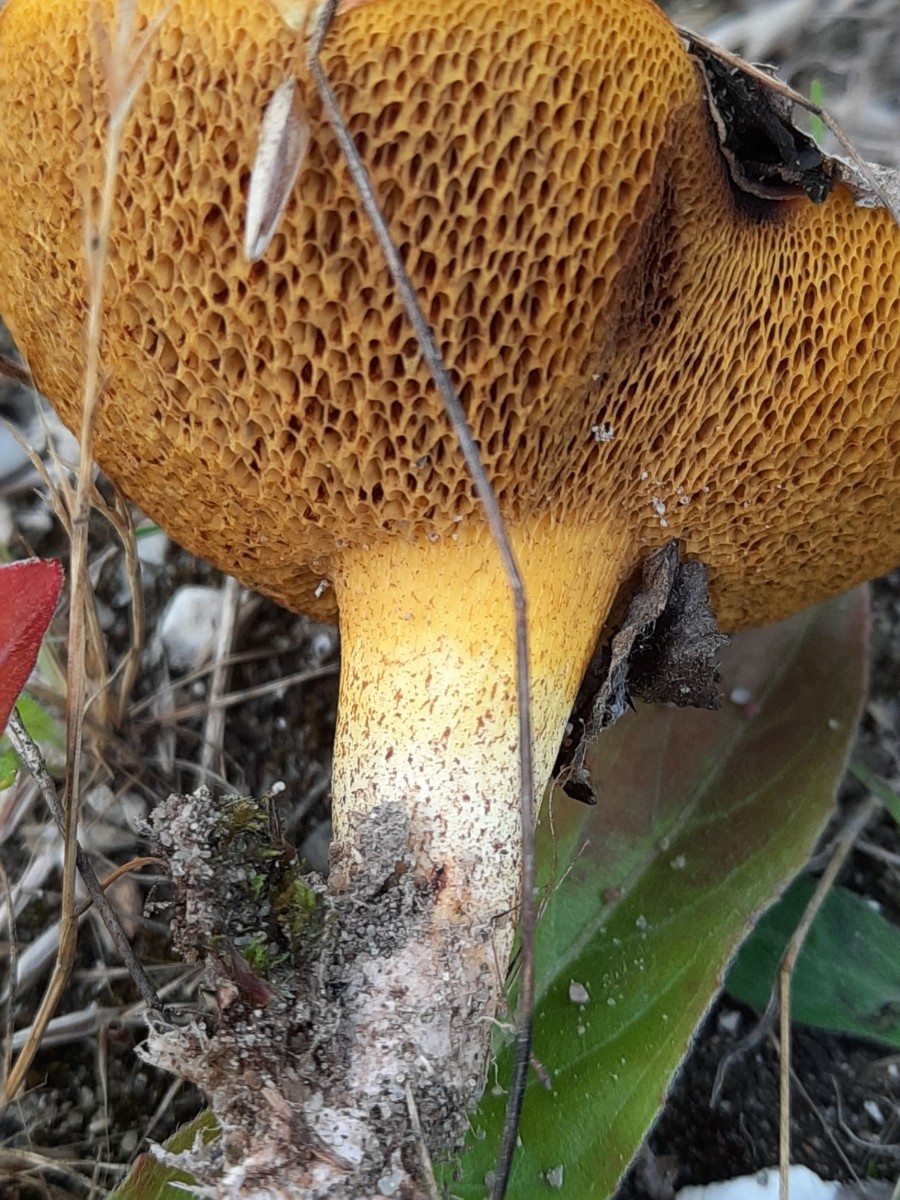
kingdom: Fungi
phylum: Basidiomycota
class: Agaricomycetes
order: Boletales
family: Suillaceae
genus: Suillus
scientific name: Suillus granulatus
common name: kornet slimrørhat
